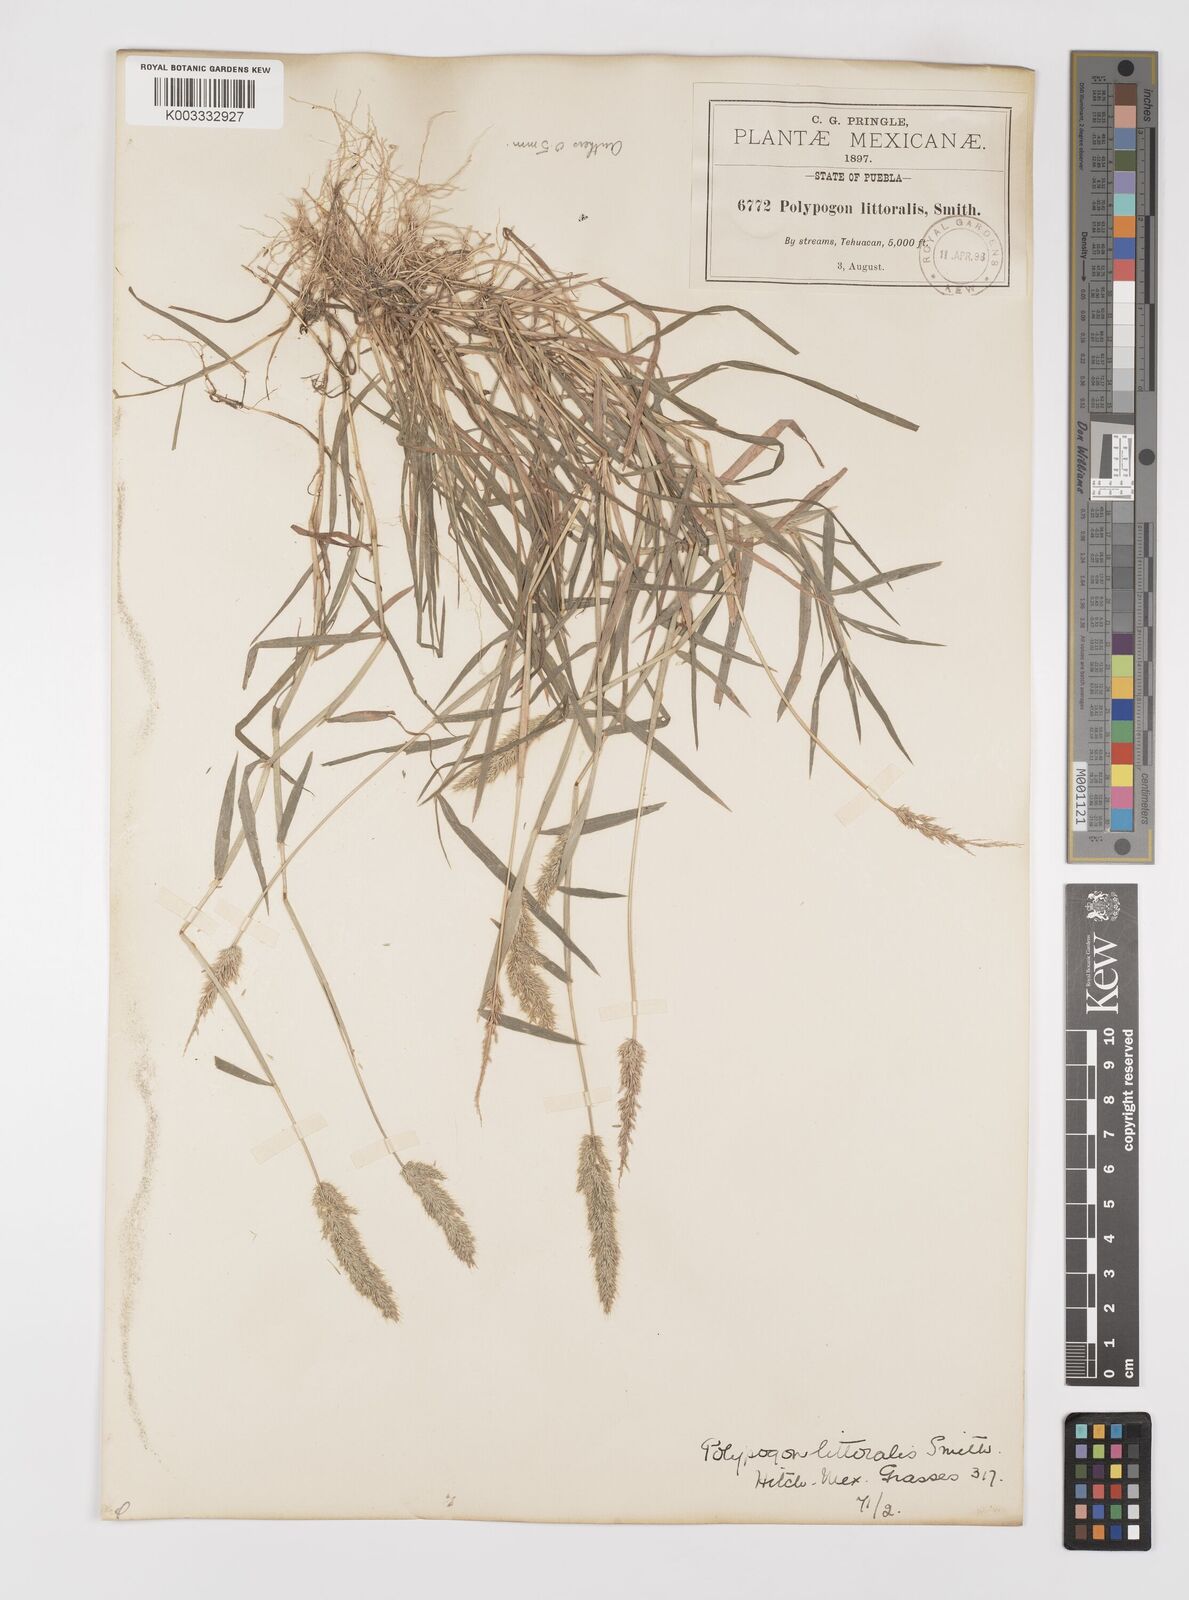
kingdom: Plantae
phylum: Tracheophyta
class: Liliopsida
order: Poales
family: Poaceae
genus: Polypogon
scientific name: Polypogon interruptus
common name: Ditch polypogon
